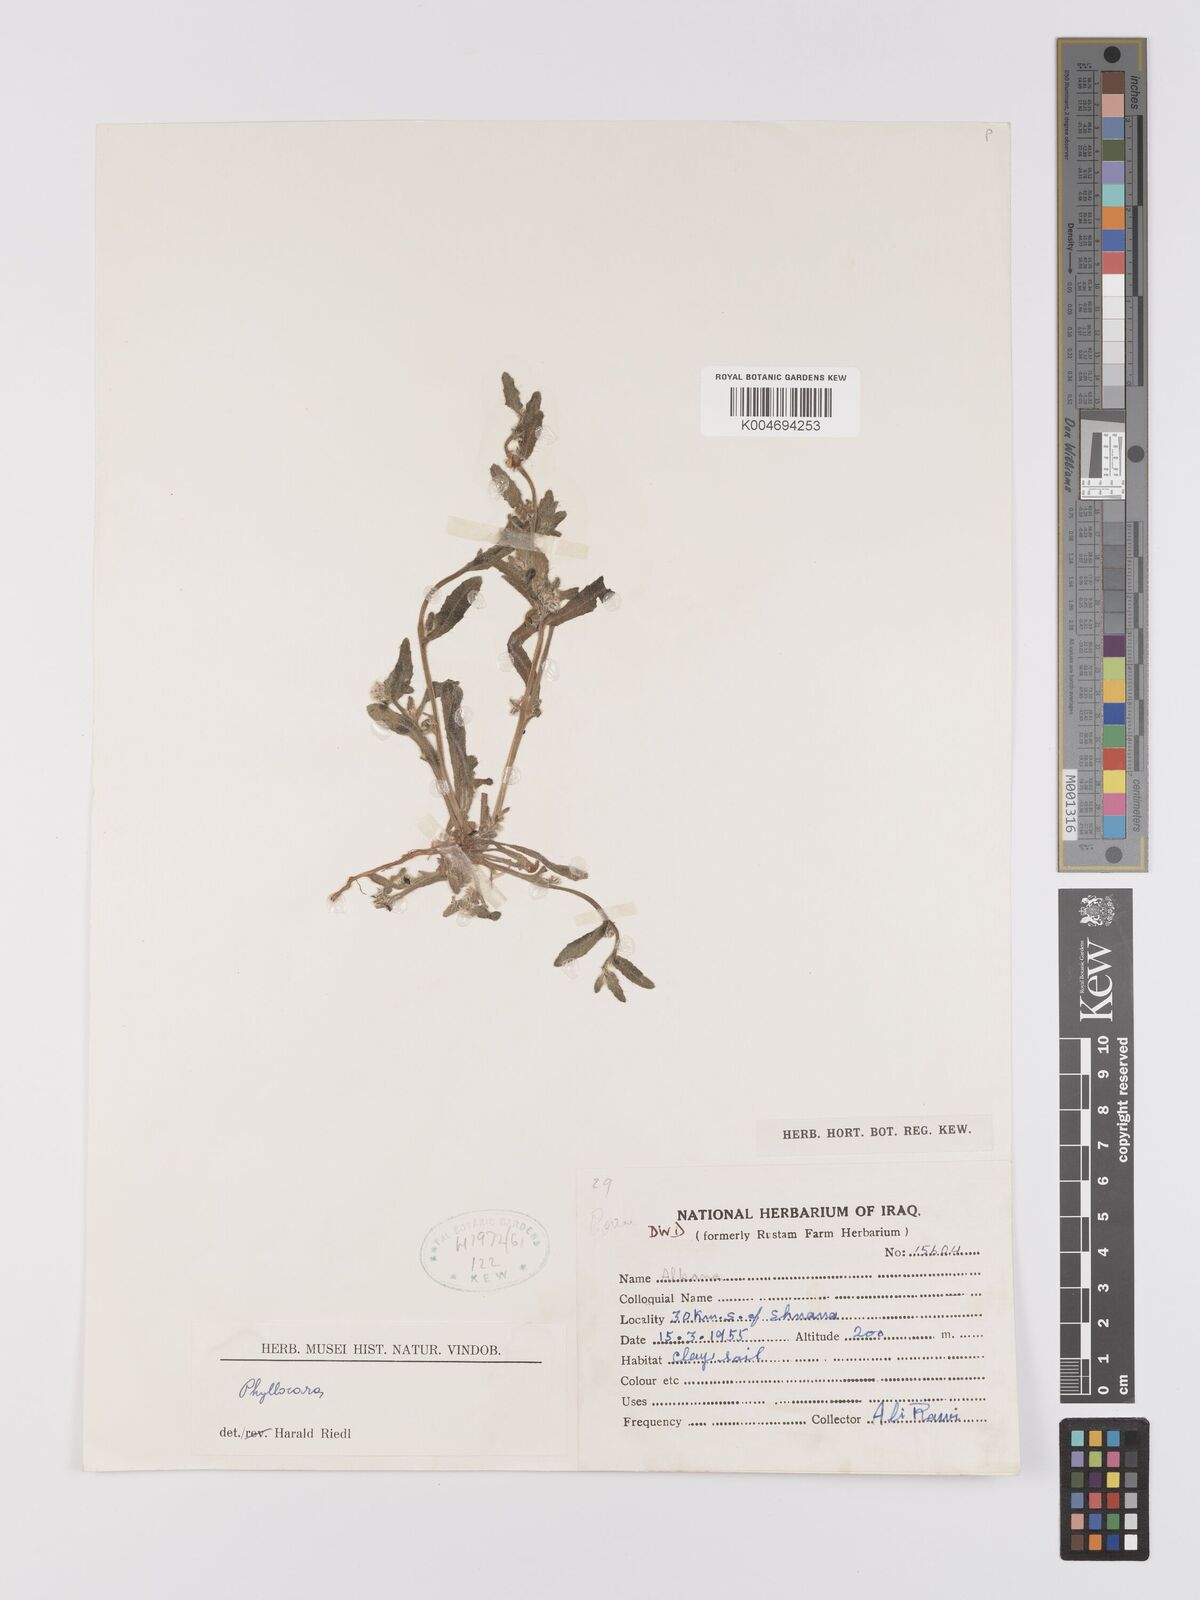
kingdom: Plantae
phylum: Tracheophyta
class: Magnoliopsida
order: Boraginales
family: Boraginaceae
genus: Gastrocotyle
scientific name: Gastrocotyle hispida
